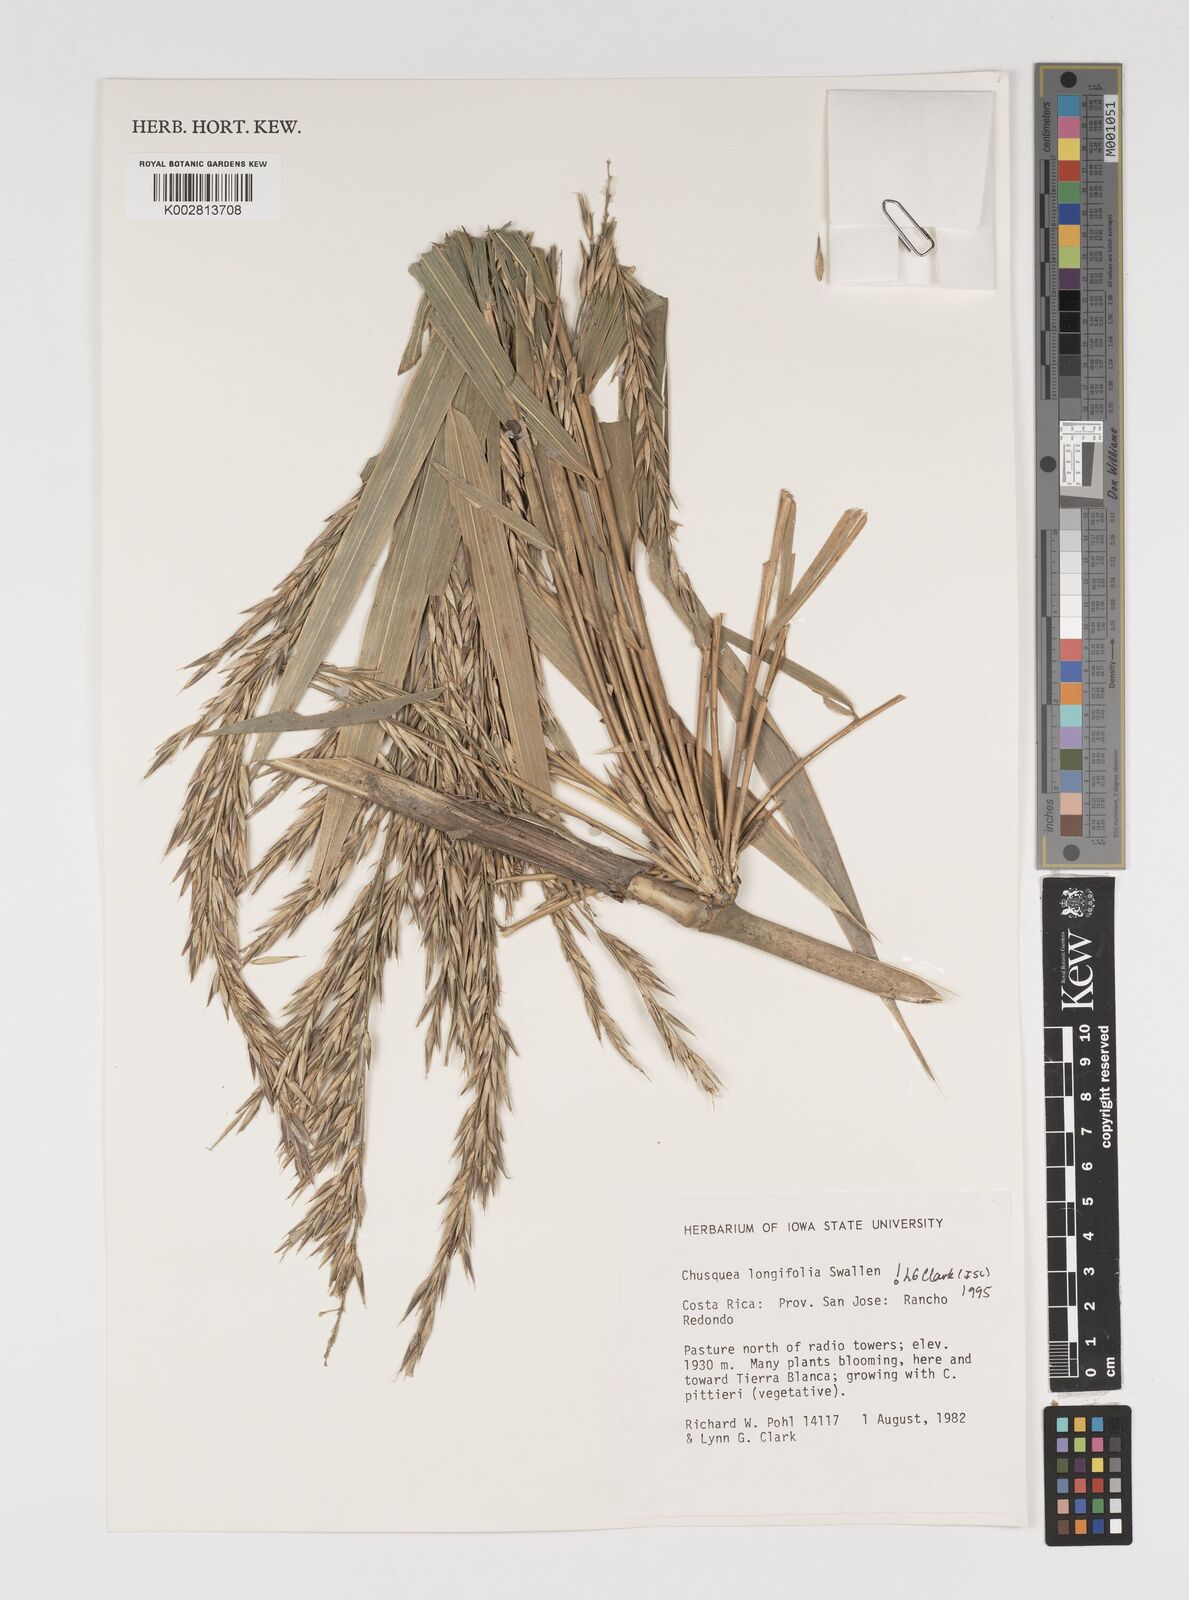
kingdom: Plantae
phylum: Tracheophyta
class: Liliopsida
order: Poales
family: Poaceae
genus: Chusquea
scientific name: Chusquea longifolia
